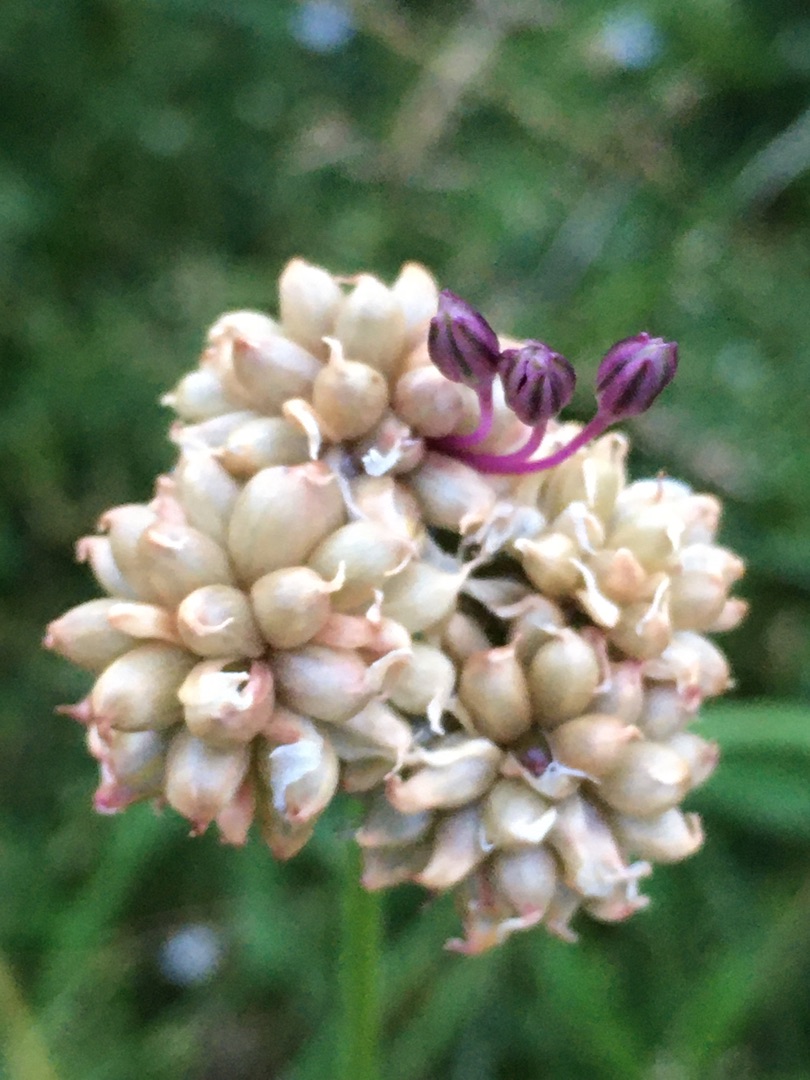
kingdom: Plantae
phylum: Tracheophyta
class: Liliopsida
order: Asparagales
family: Amaryllidaceae
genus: Allium
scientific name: Allium vineale
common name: Sand-løg
